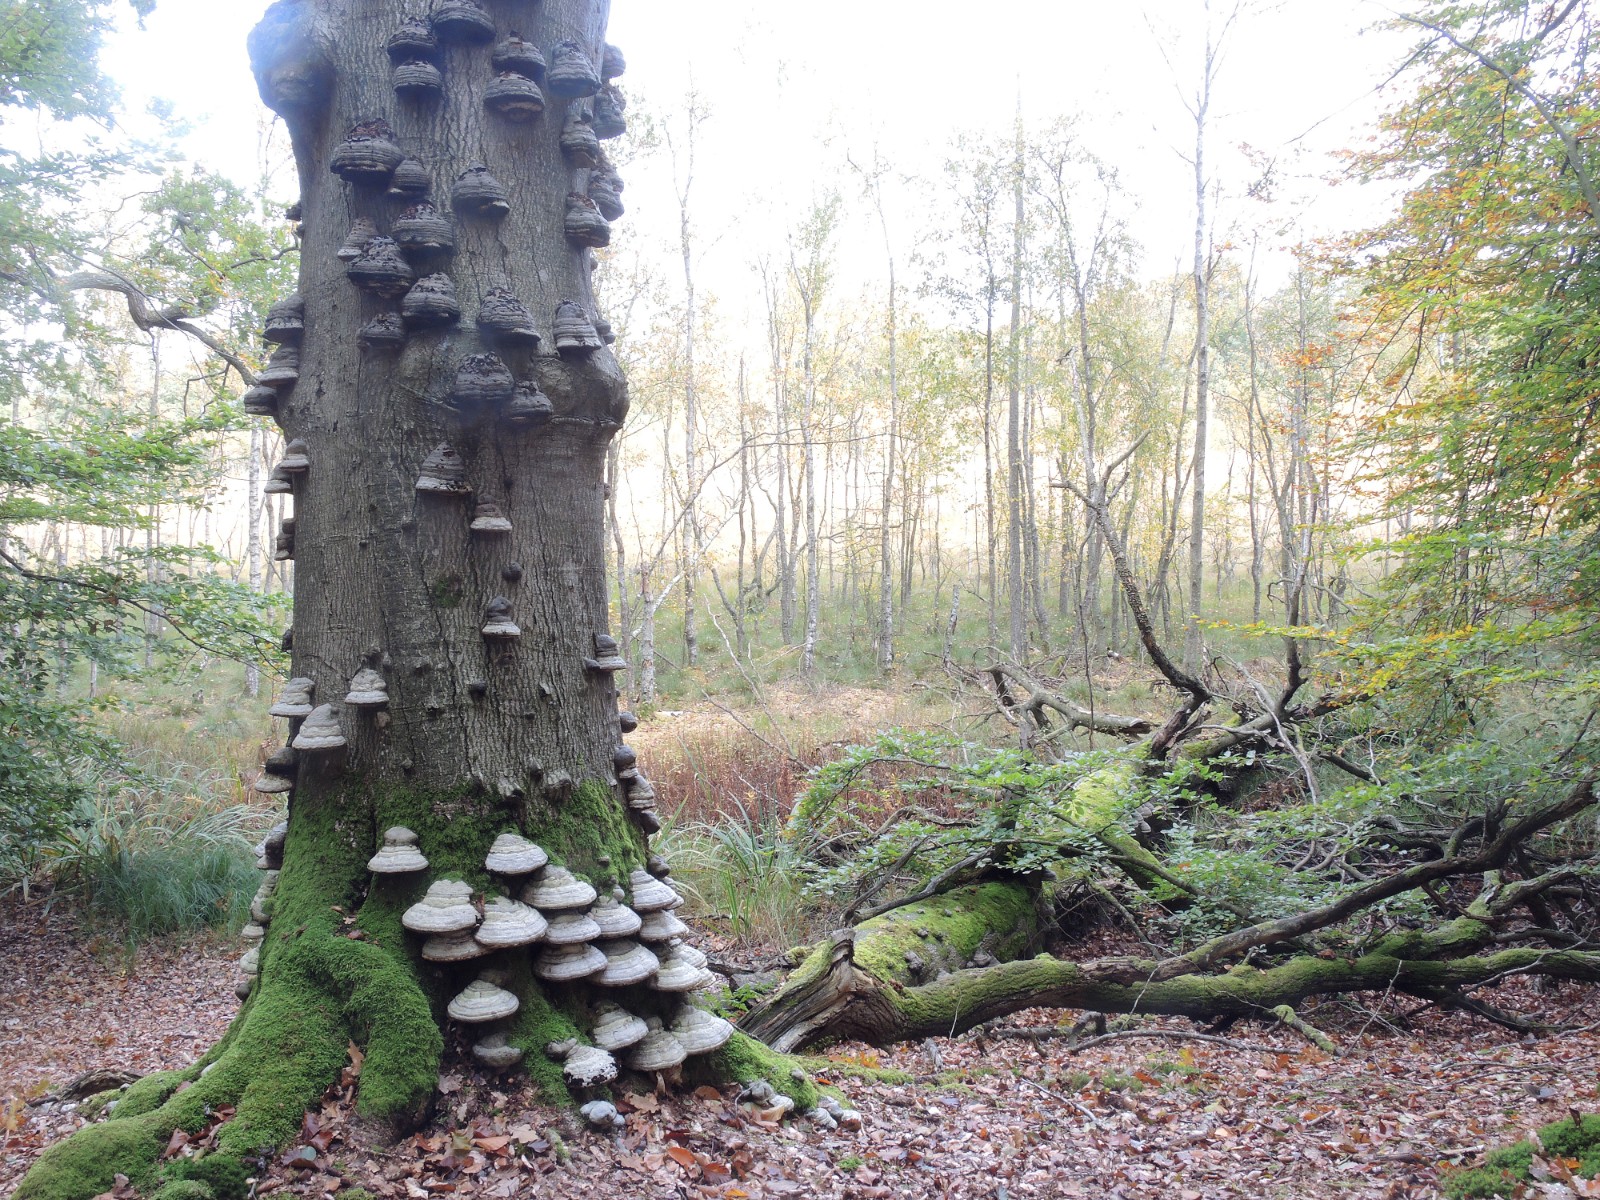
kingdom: Fungi
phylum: Basidiomycota
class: Agaricomycetes
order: Polyporales
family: Polyporaceae
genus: Fomes
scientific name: Fomes fomentarius
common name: tøndersvamp
